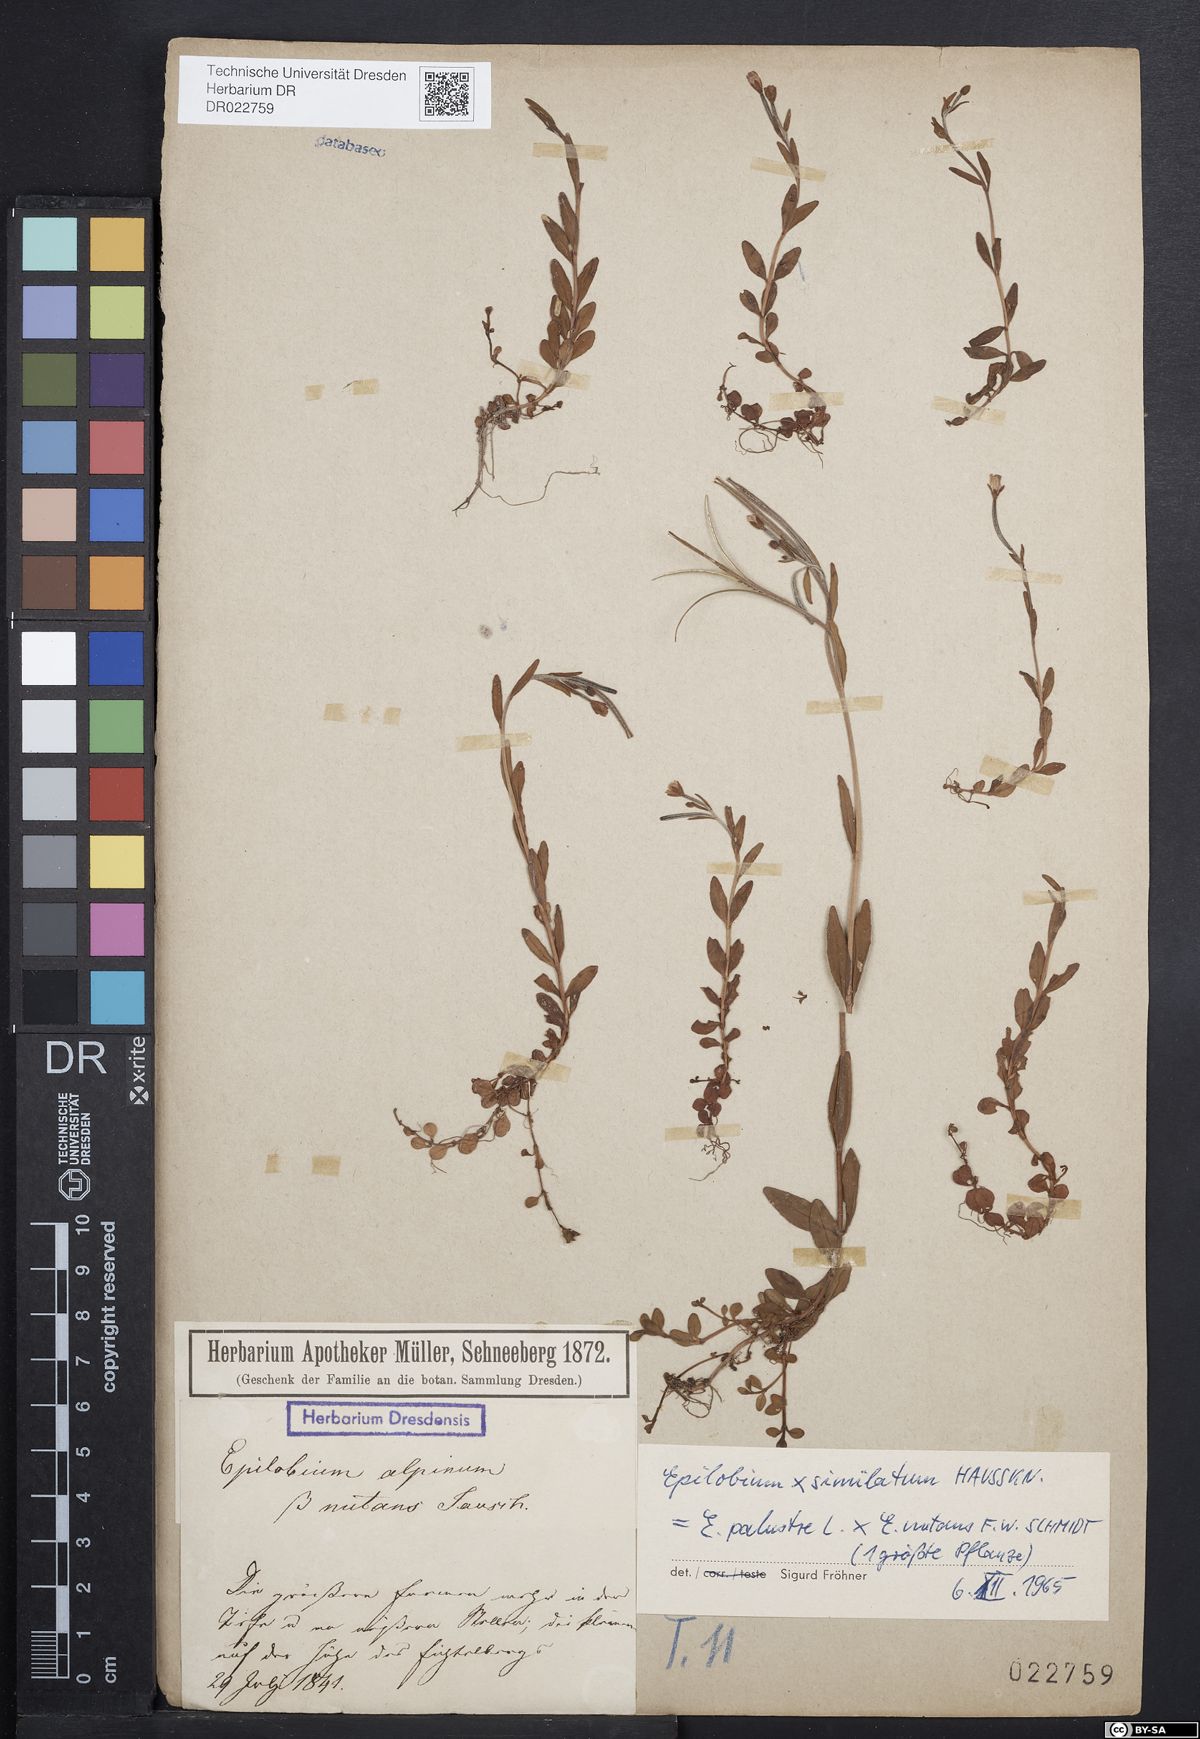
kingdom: Plantae
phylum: Tracheophyta
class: Magnoliopsida
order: Myrtales
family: Onagraceae
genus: Epilobium
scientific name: Epilobium nutans
